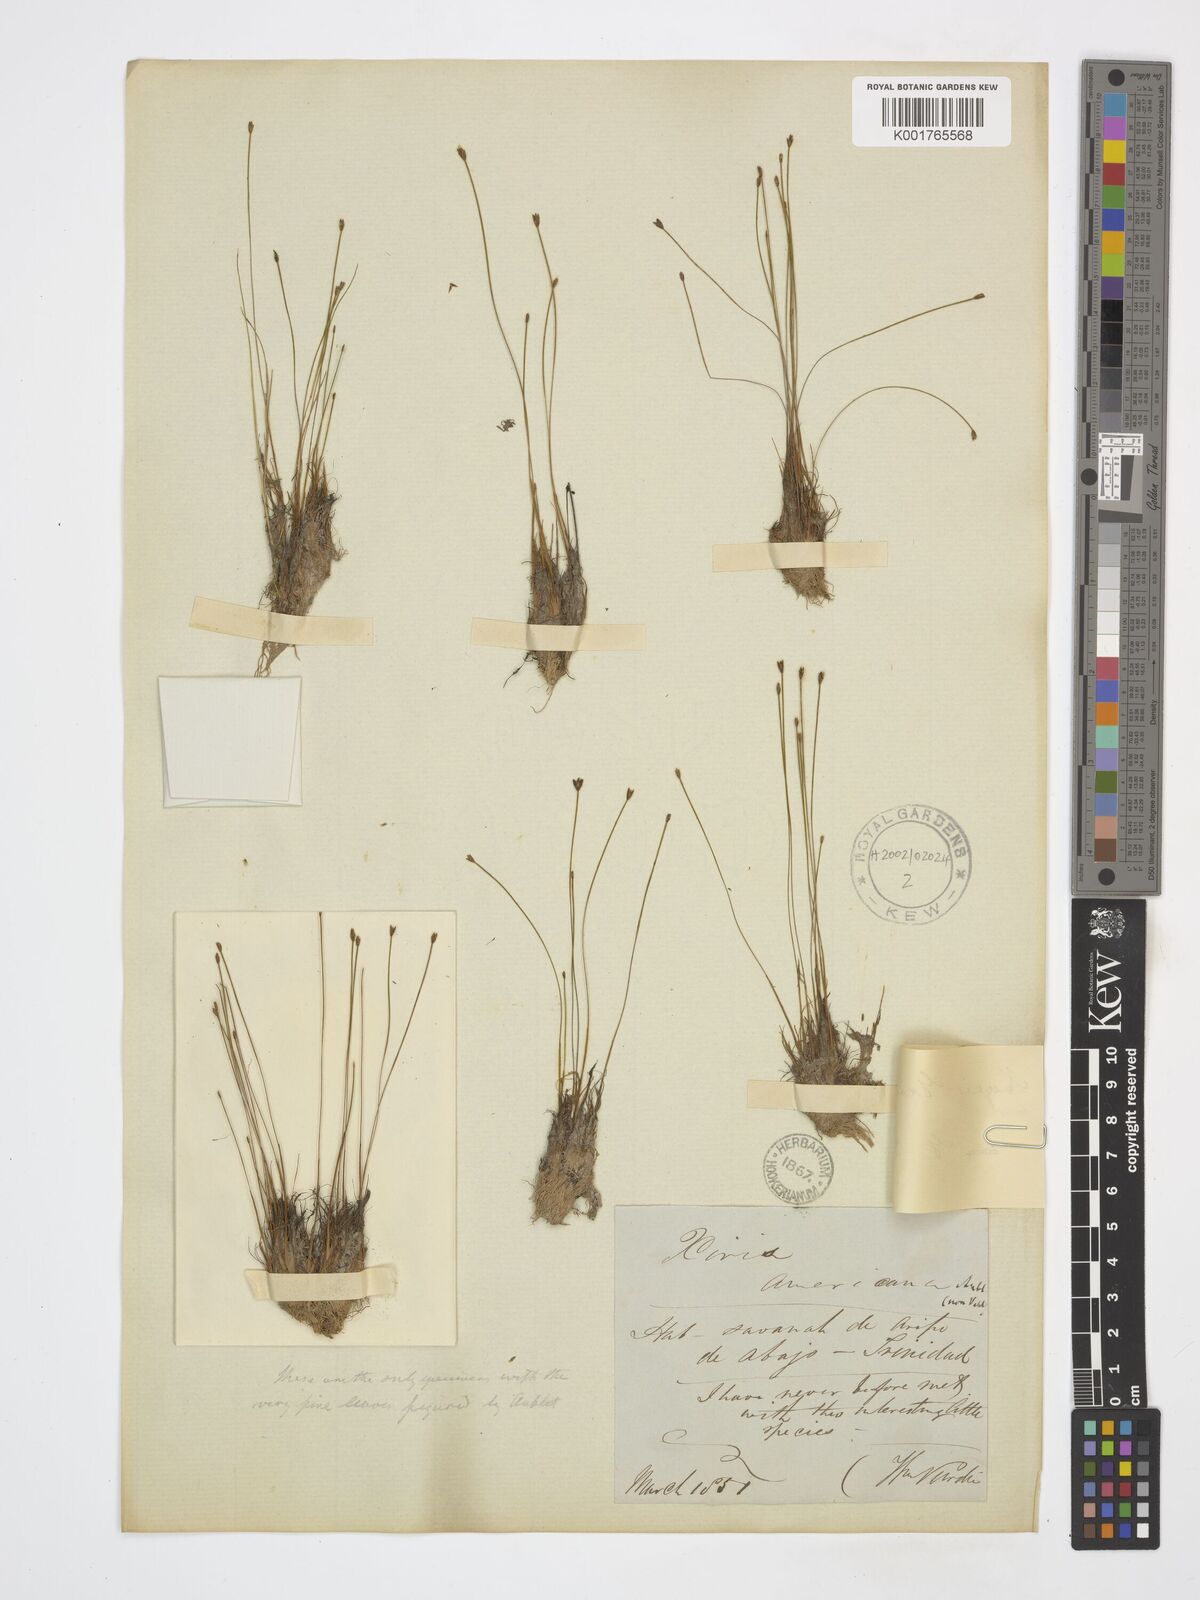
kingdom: Plantae
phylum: Tracheophyta
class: Liliopsida
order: Poales
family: Xyridaceae
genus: Xyris
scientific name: Xyris grisebachii
